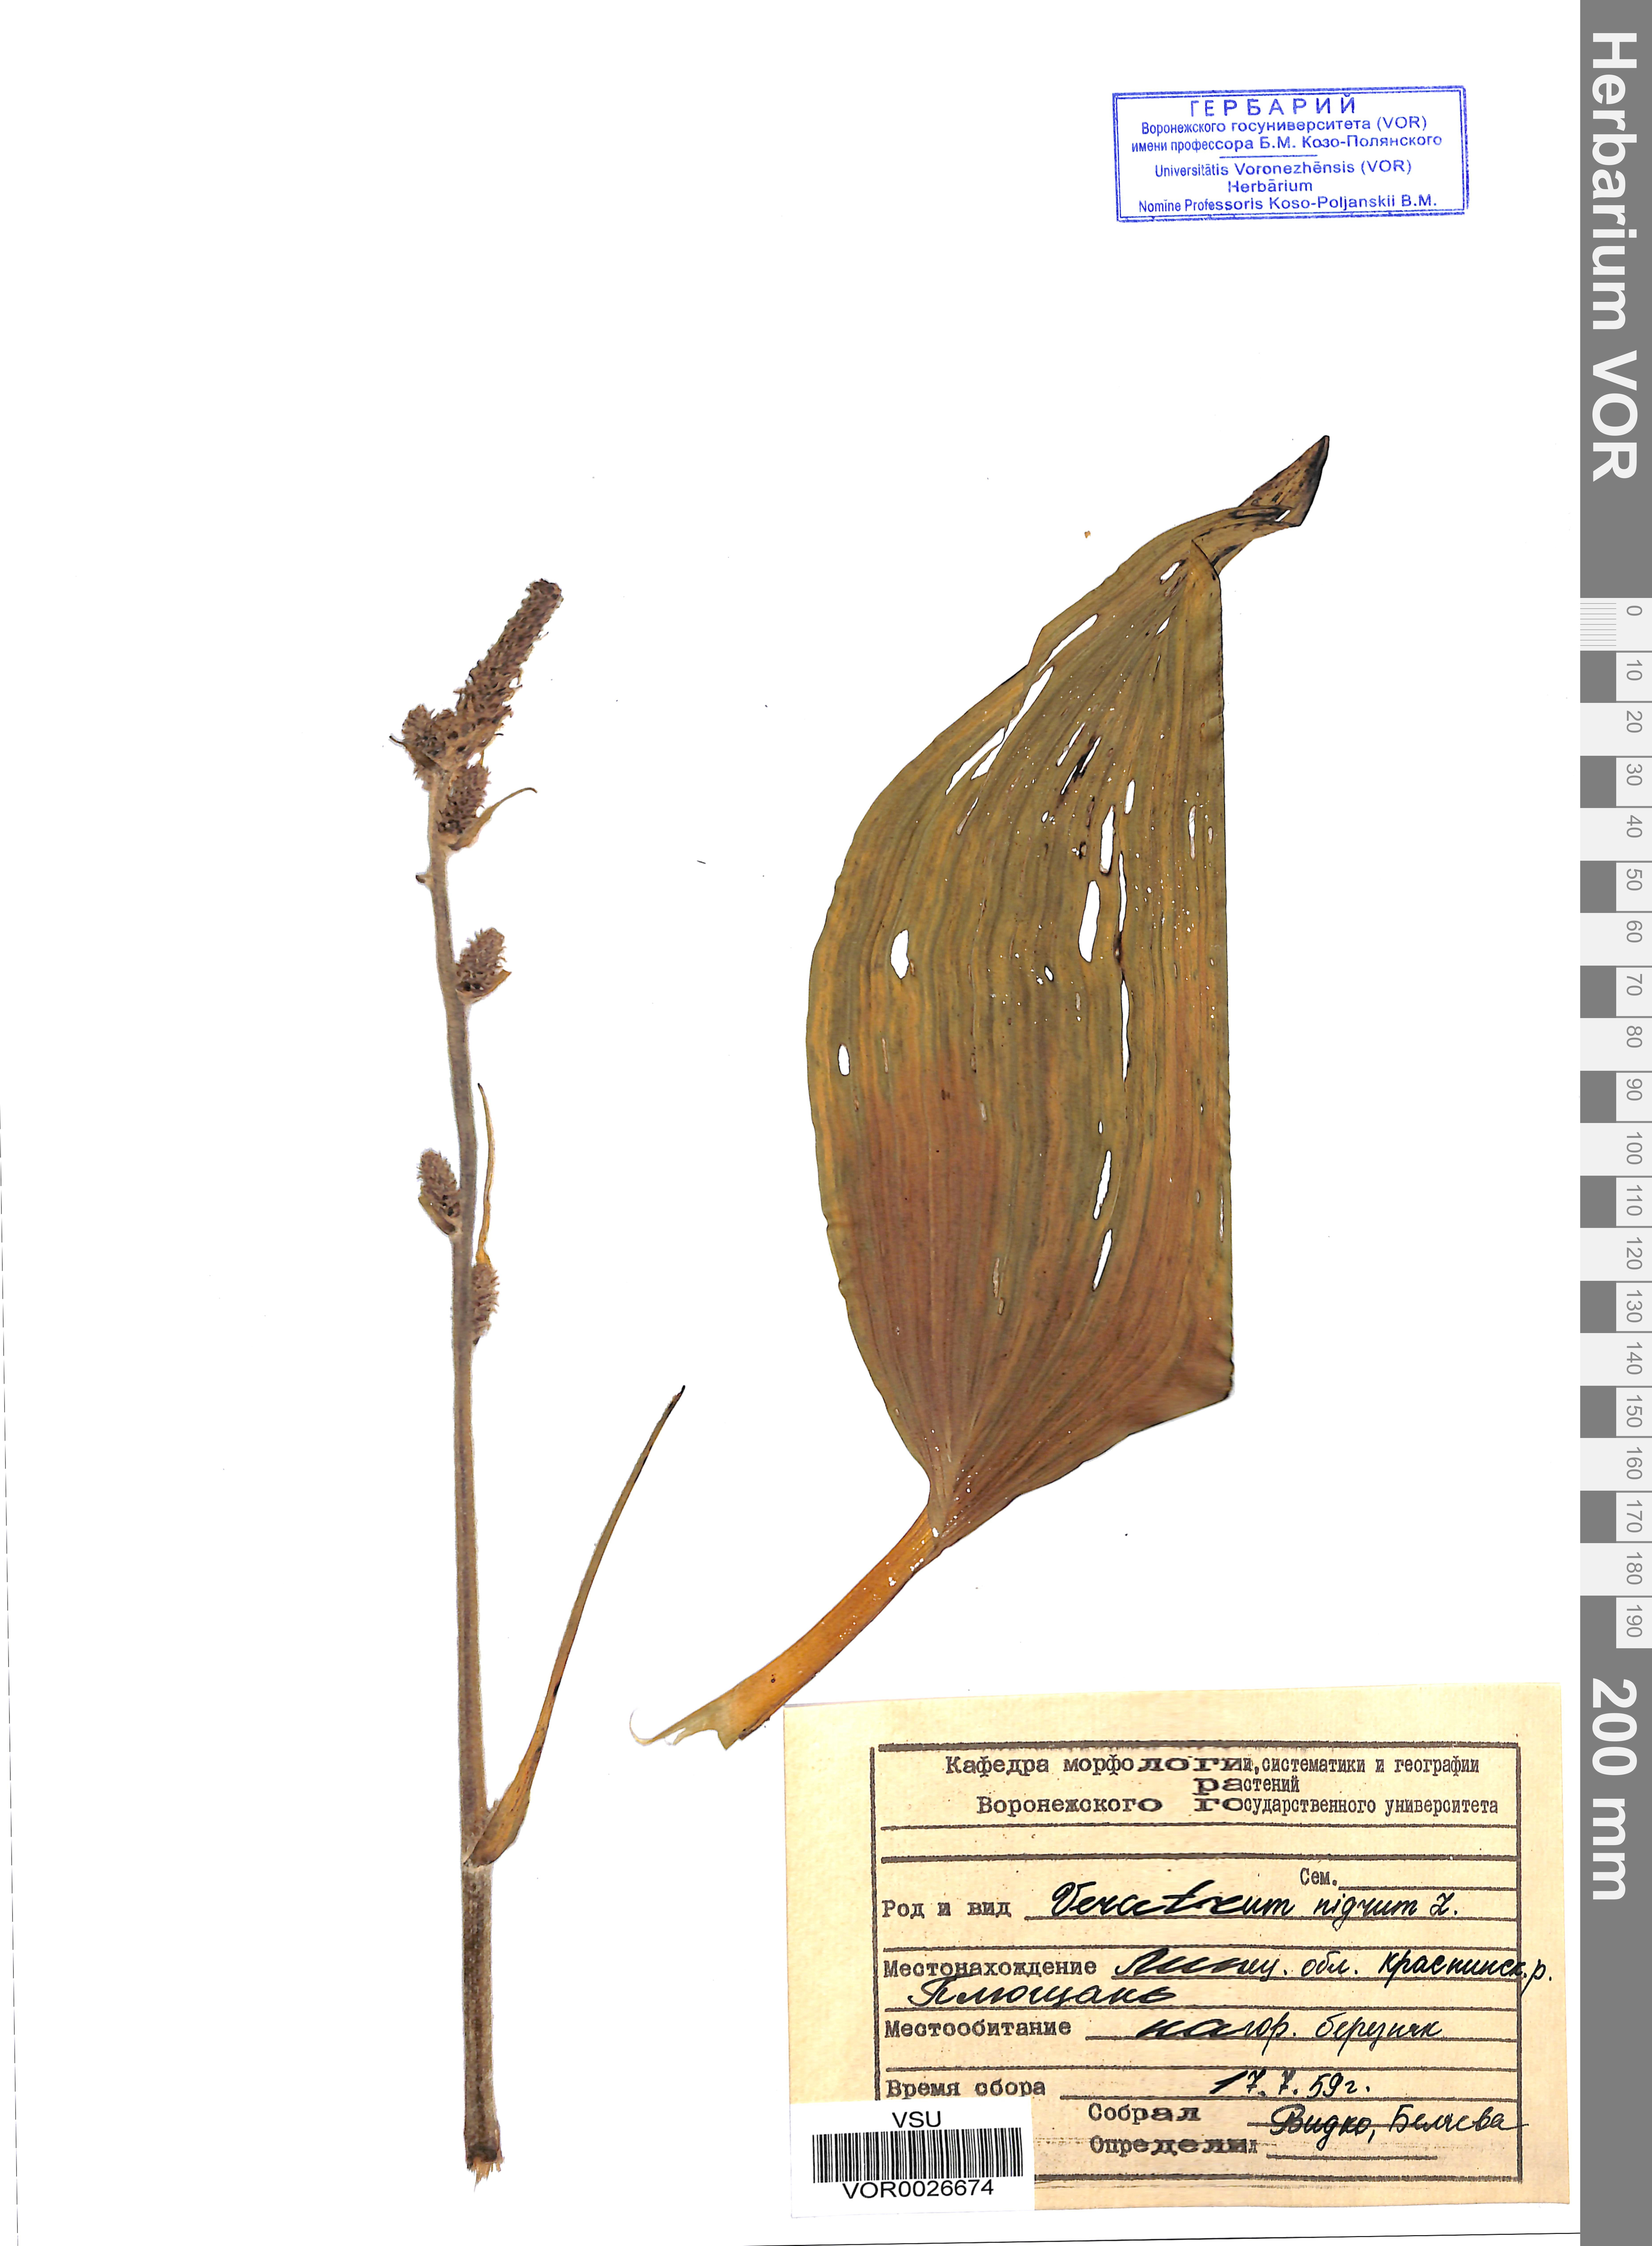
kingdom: Plantae
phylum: Tracheophyta
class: Liliopsida
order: Liliales
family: Melanthiaceae
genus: Veratrum
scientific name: Veratrum nigrum
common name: Black veratrum
